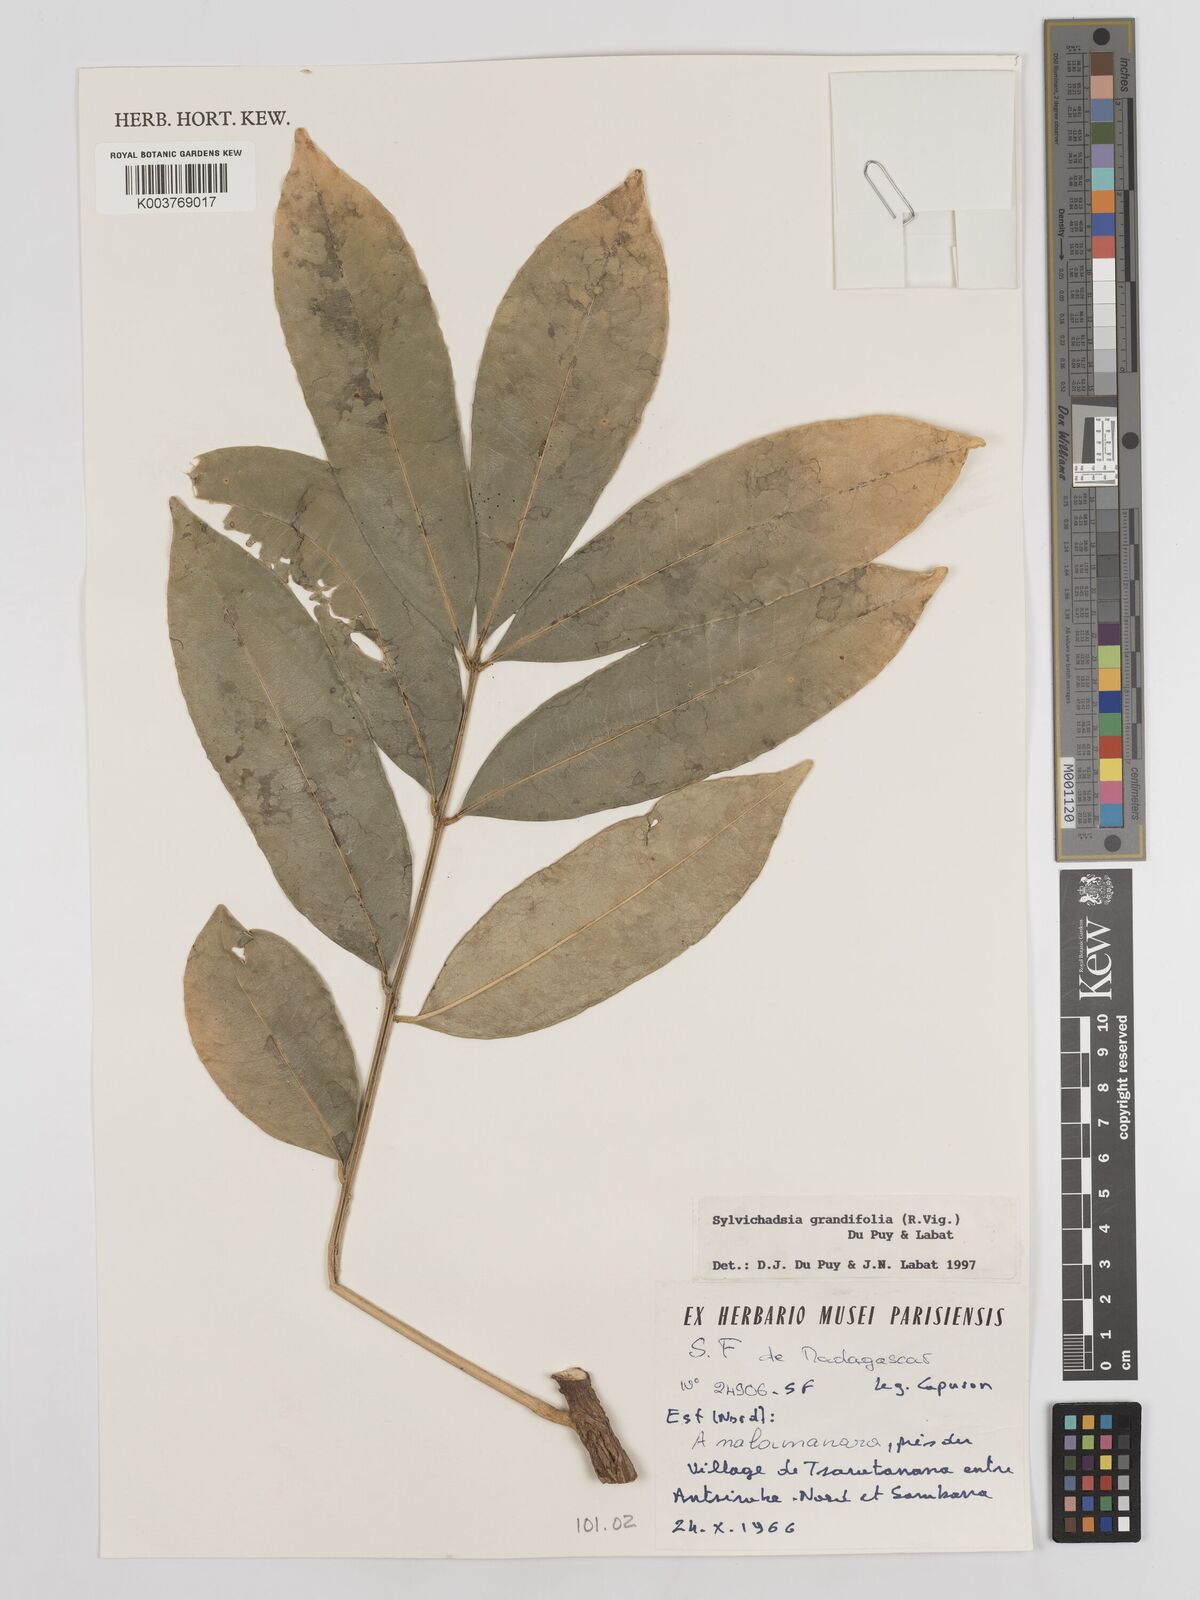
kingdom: Plantae
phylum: Tracheophyta
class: Magnoliopsida
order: Fabales
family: Fabaceae
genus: Sylvichadsia
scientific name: Sylvichadsia grandifolia
